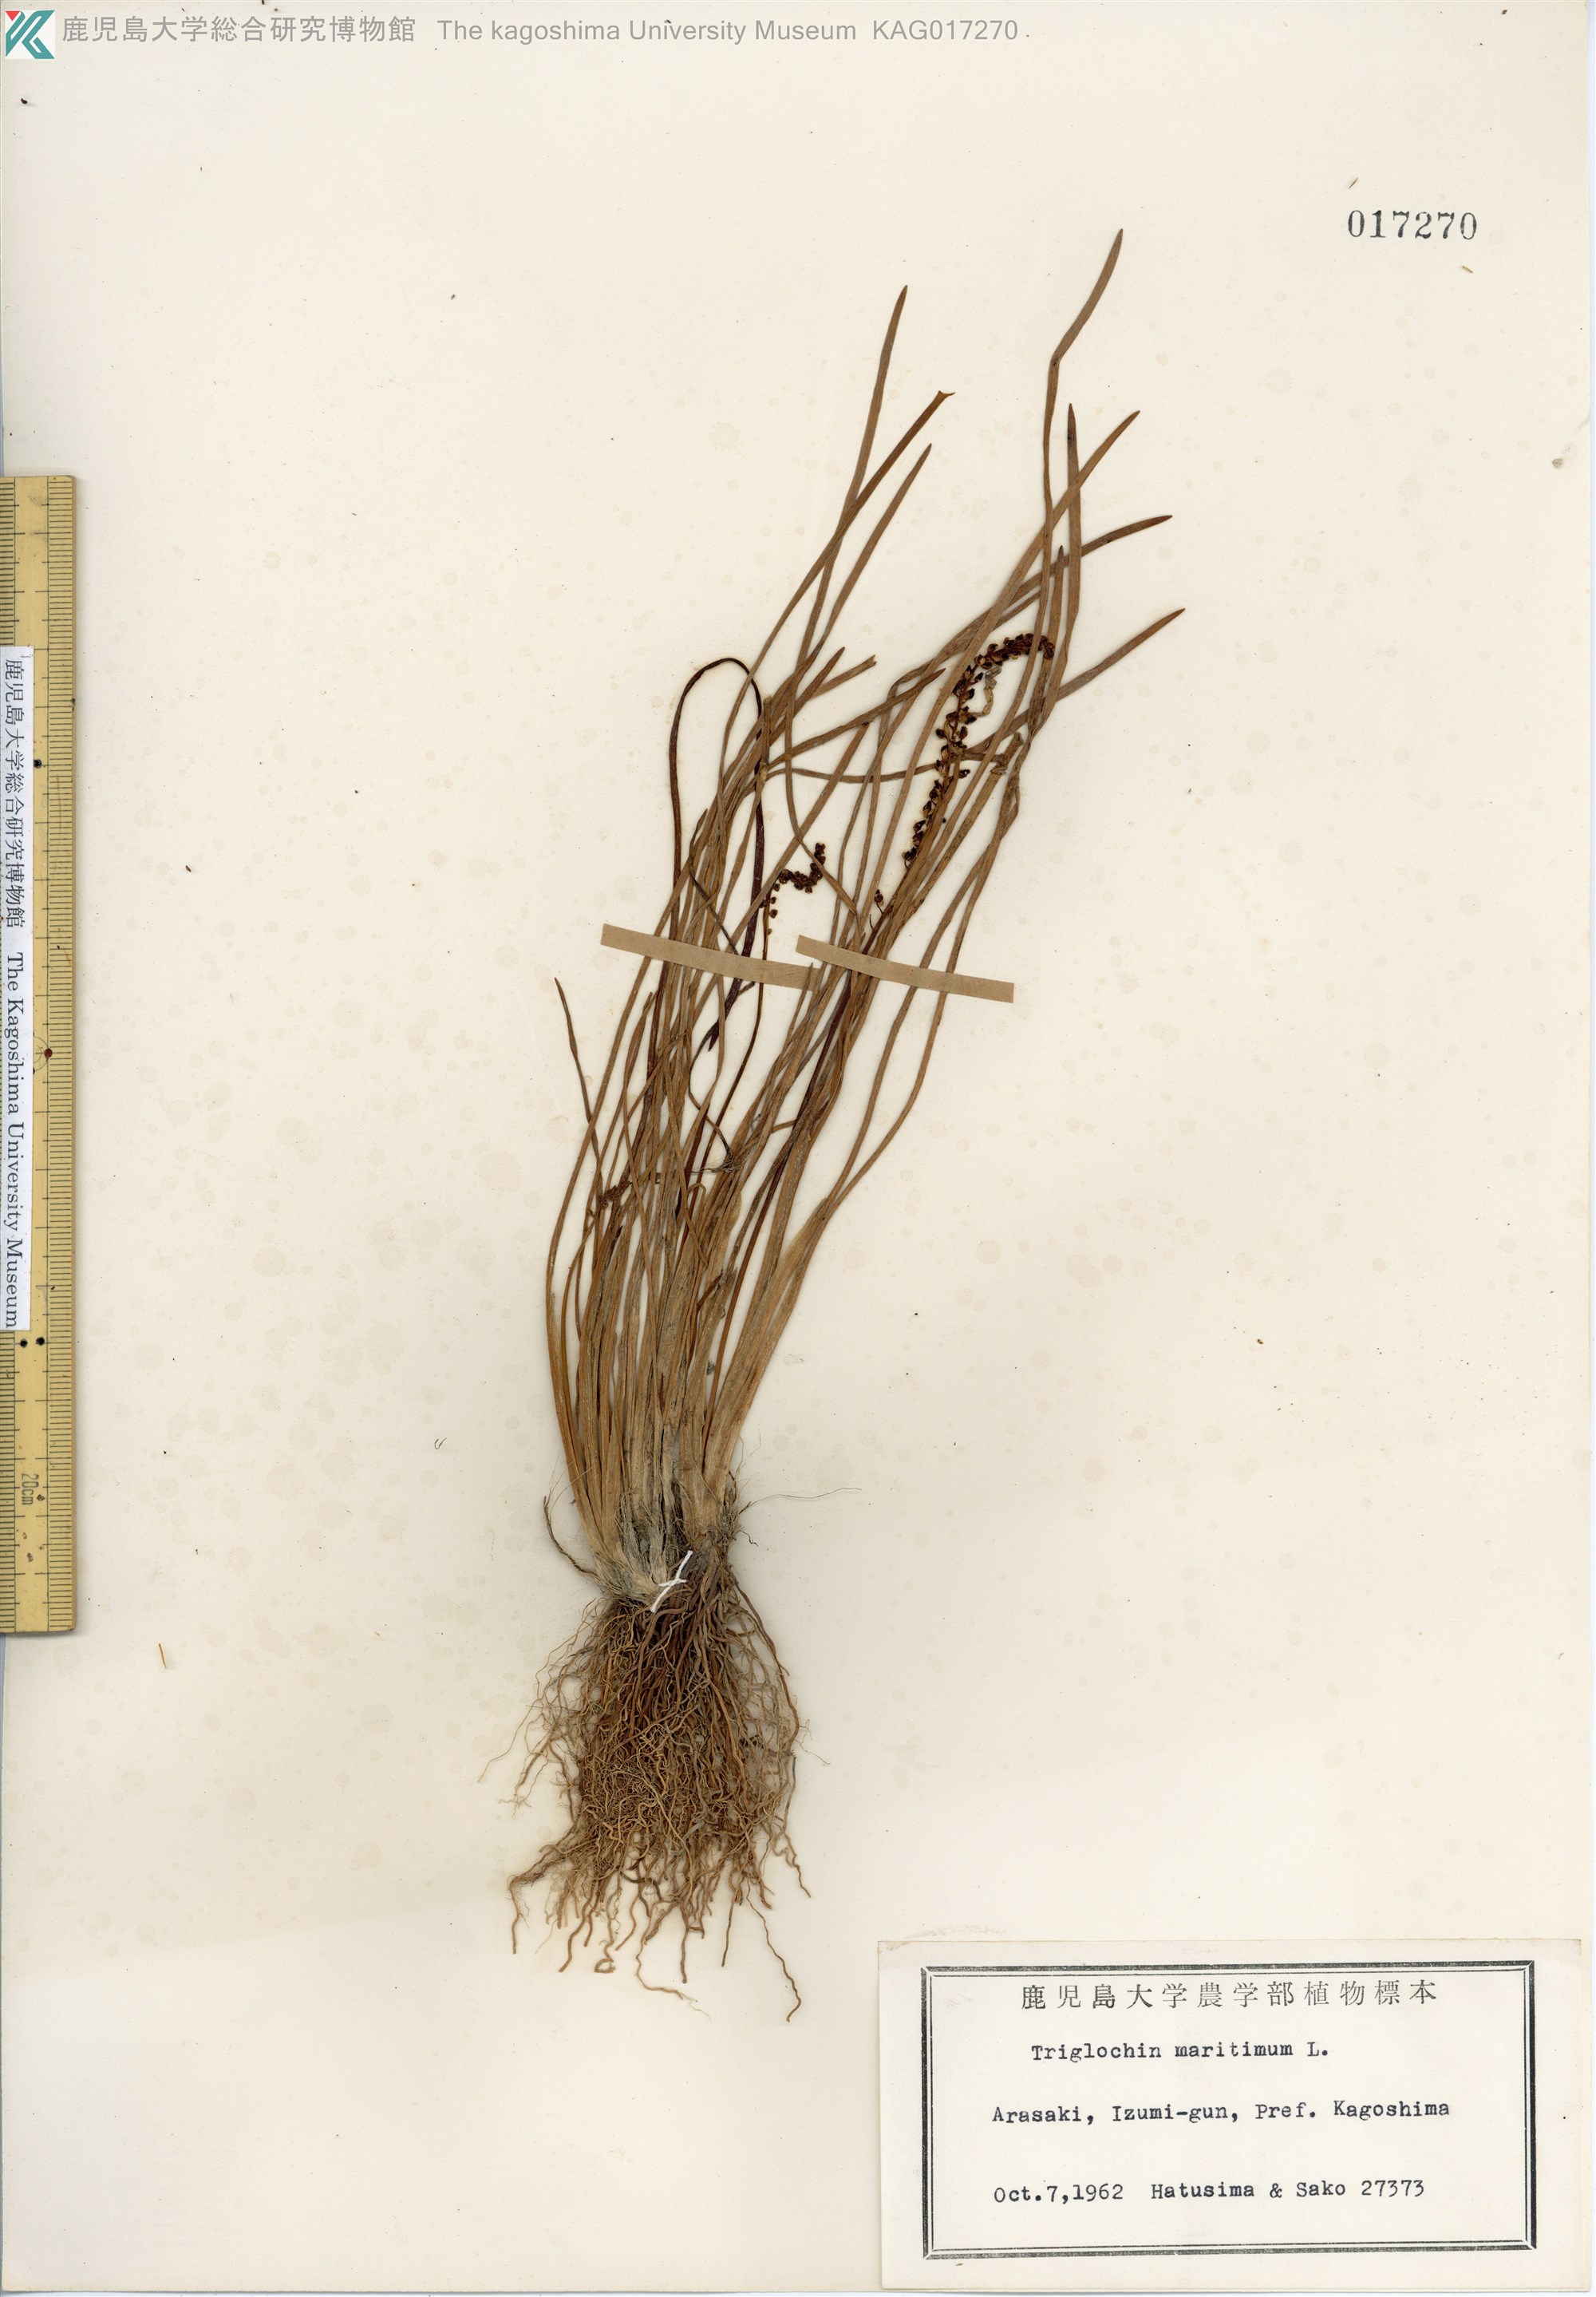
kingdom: Plantae
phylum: Tracheophyta
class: Liliopsida
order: Alismatales
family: Juncaginaceae
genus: Triglochin
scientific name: Triglochin maritima
